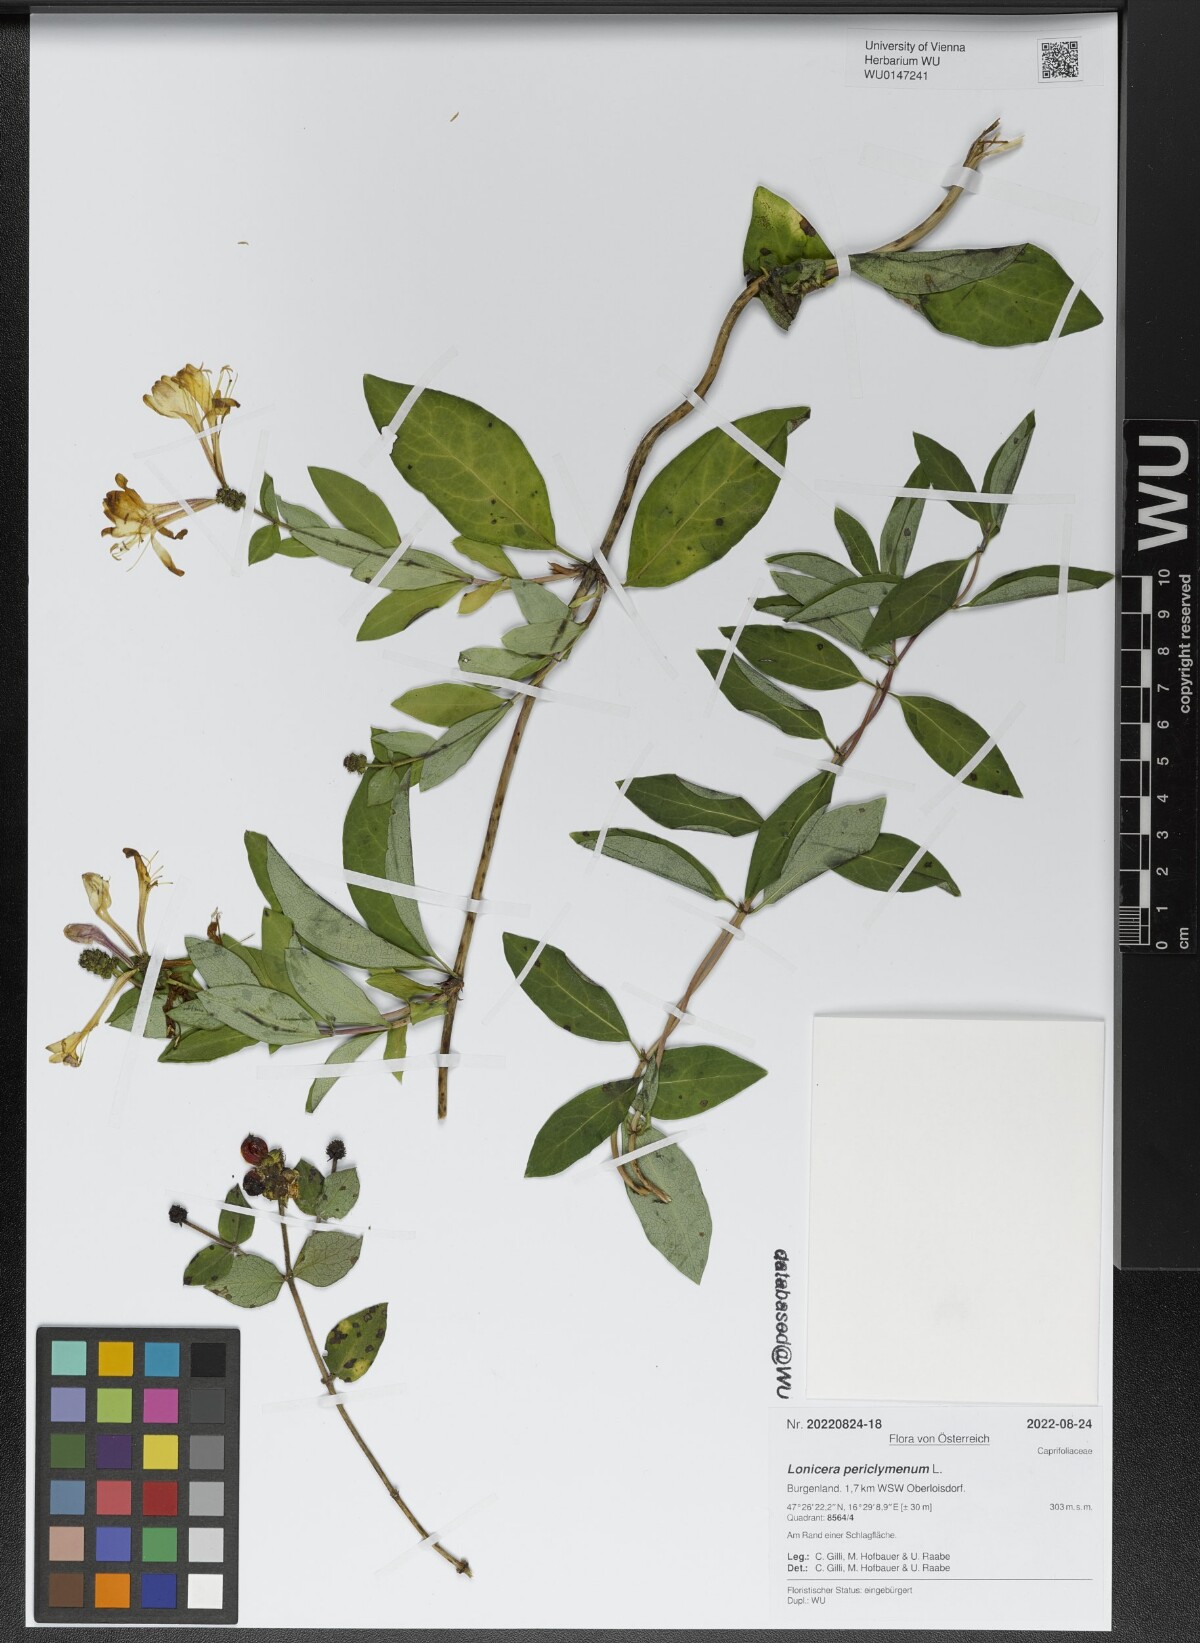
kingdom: Plantae
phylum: Tracheophyta
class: Magnoliopsida
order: Dipsacales
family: Caprifoliaceae
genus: Lonicera
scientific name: Lonicera periclymenum
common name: European honeysuckle
